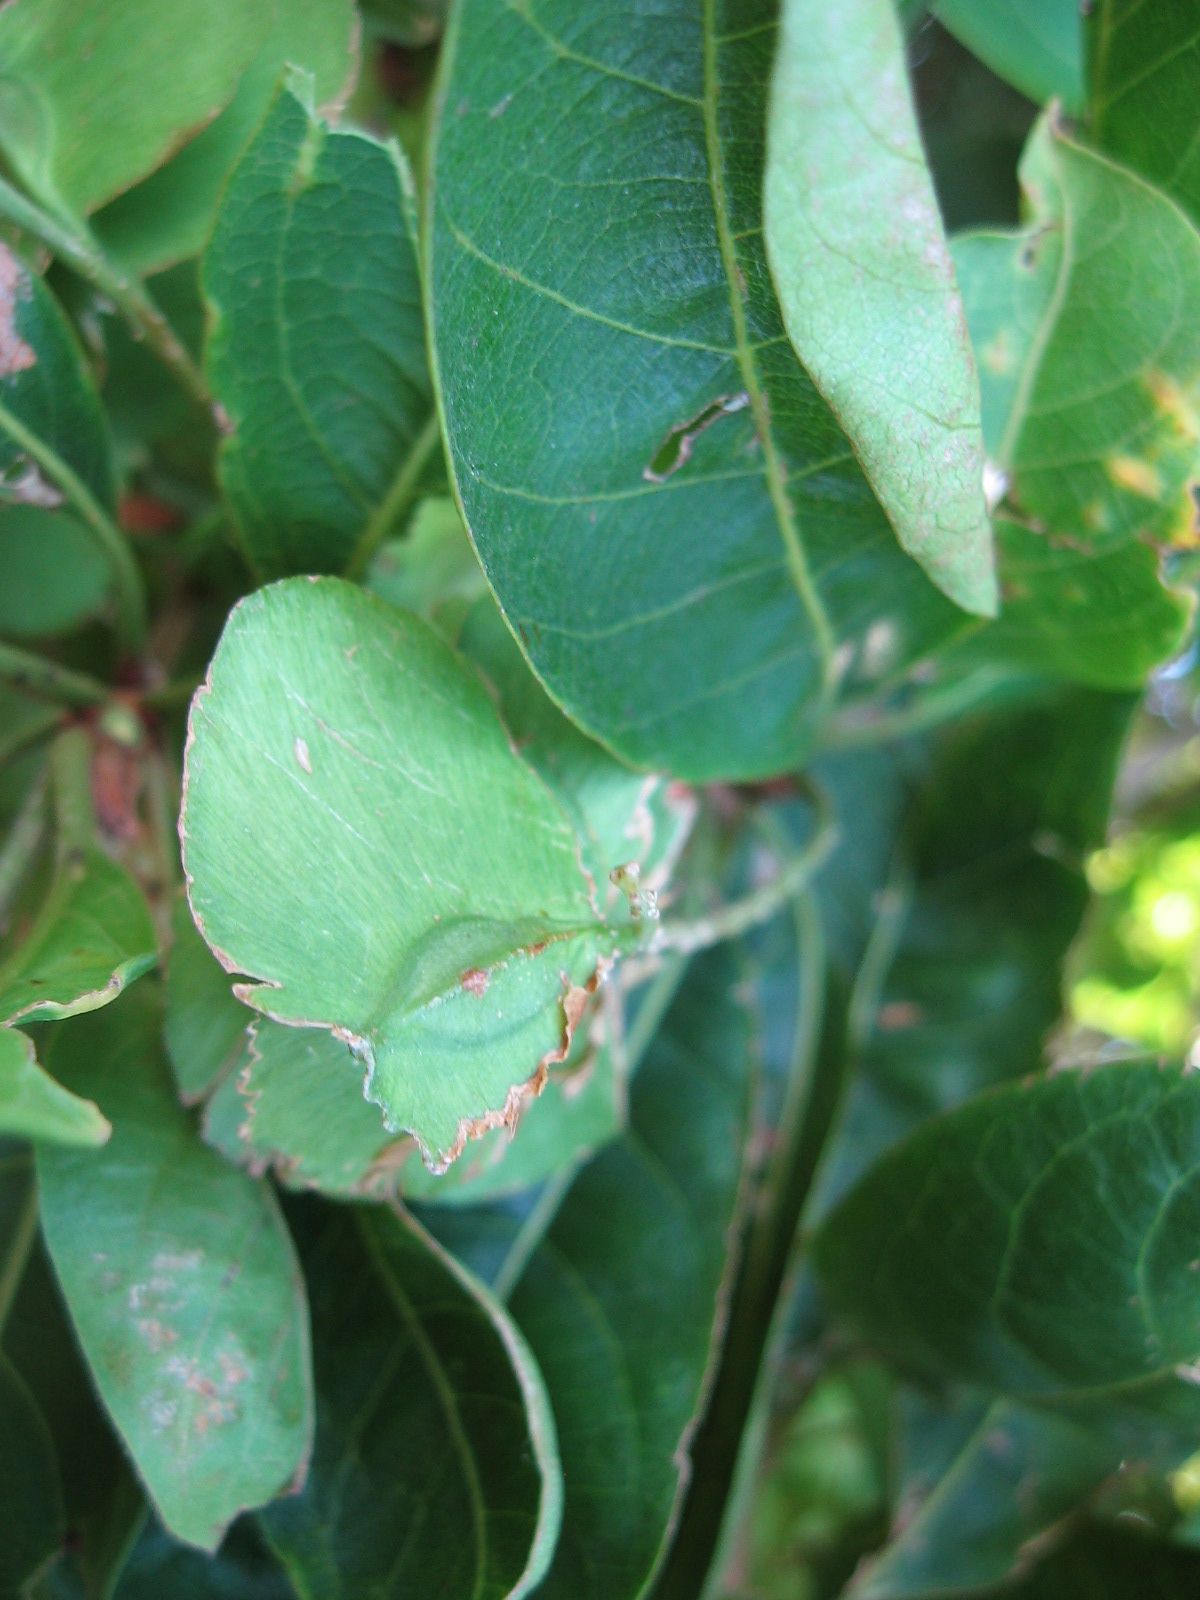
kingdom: Plantae
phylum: Tracheophyta
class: Magnoliopsida
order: Myrtales
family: Combretaceae
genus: Terminalia
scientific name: Terminalia oblonga
